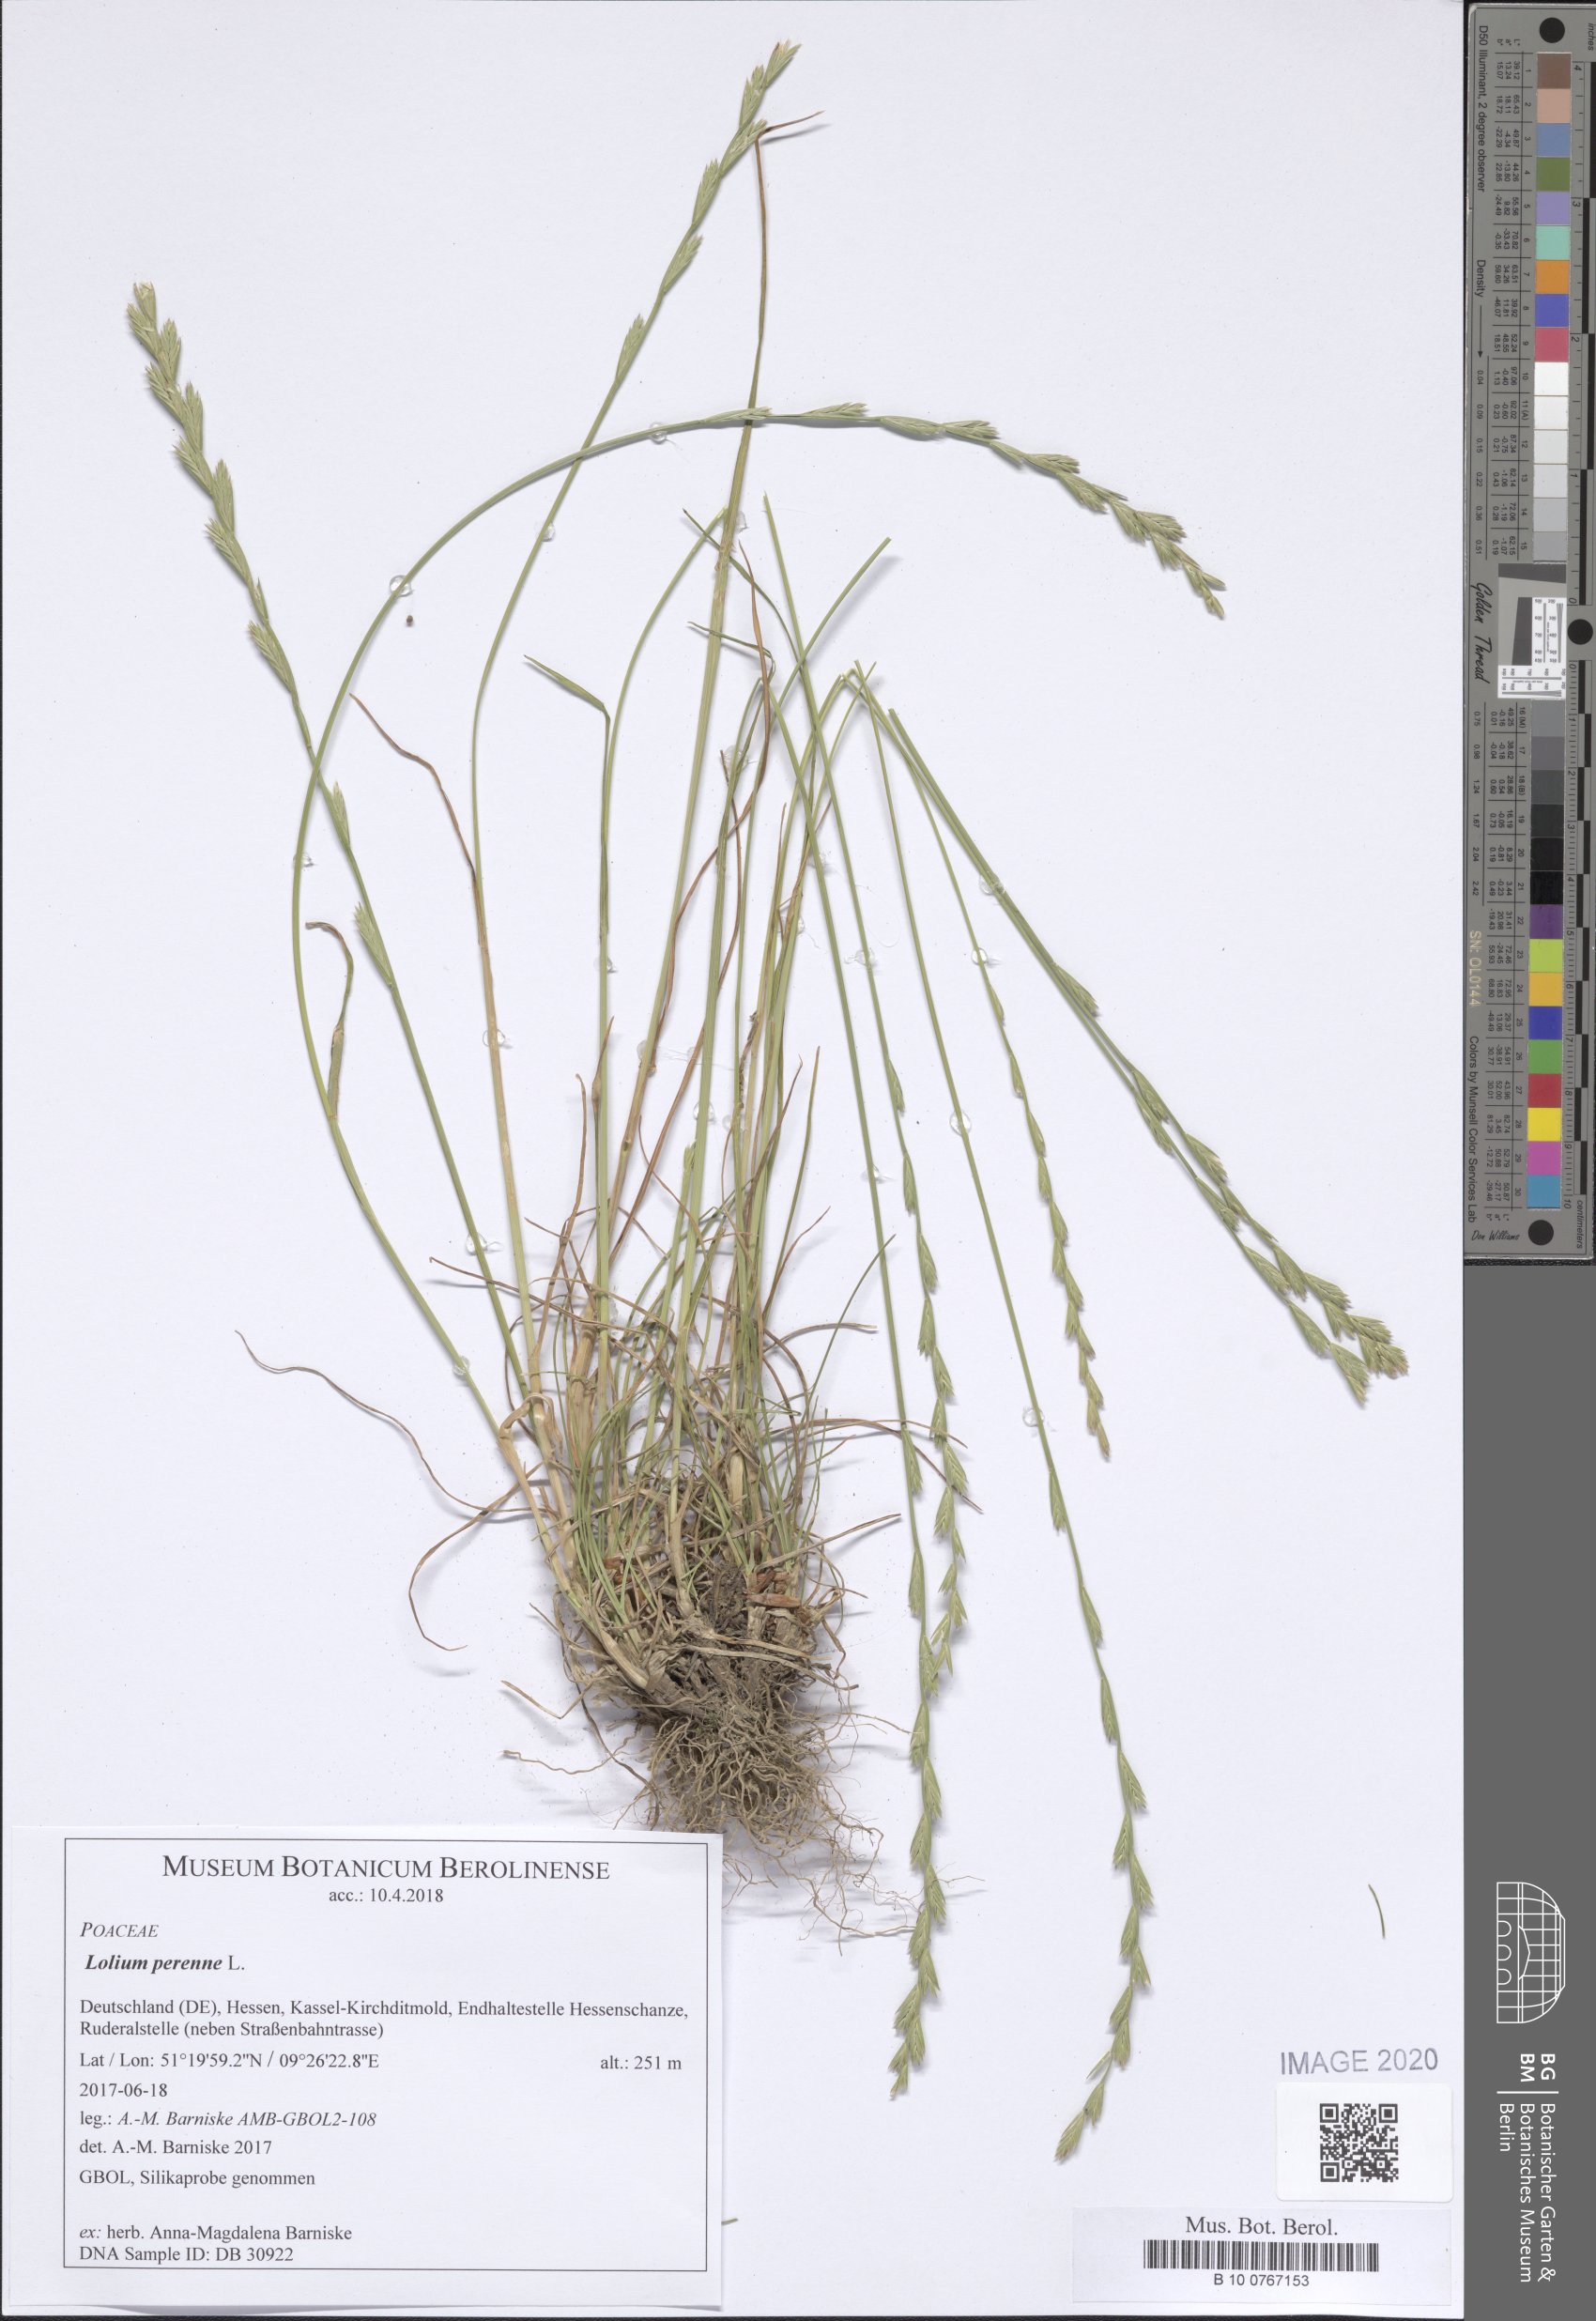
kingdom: Plantae
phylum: Tracheophyta
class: Liliopsida
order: Poales
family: Poaceae
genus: Lolium
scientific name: Lolium perenne
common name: Perennial ryegrass
